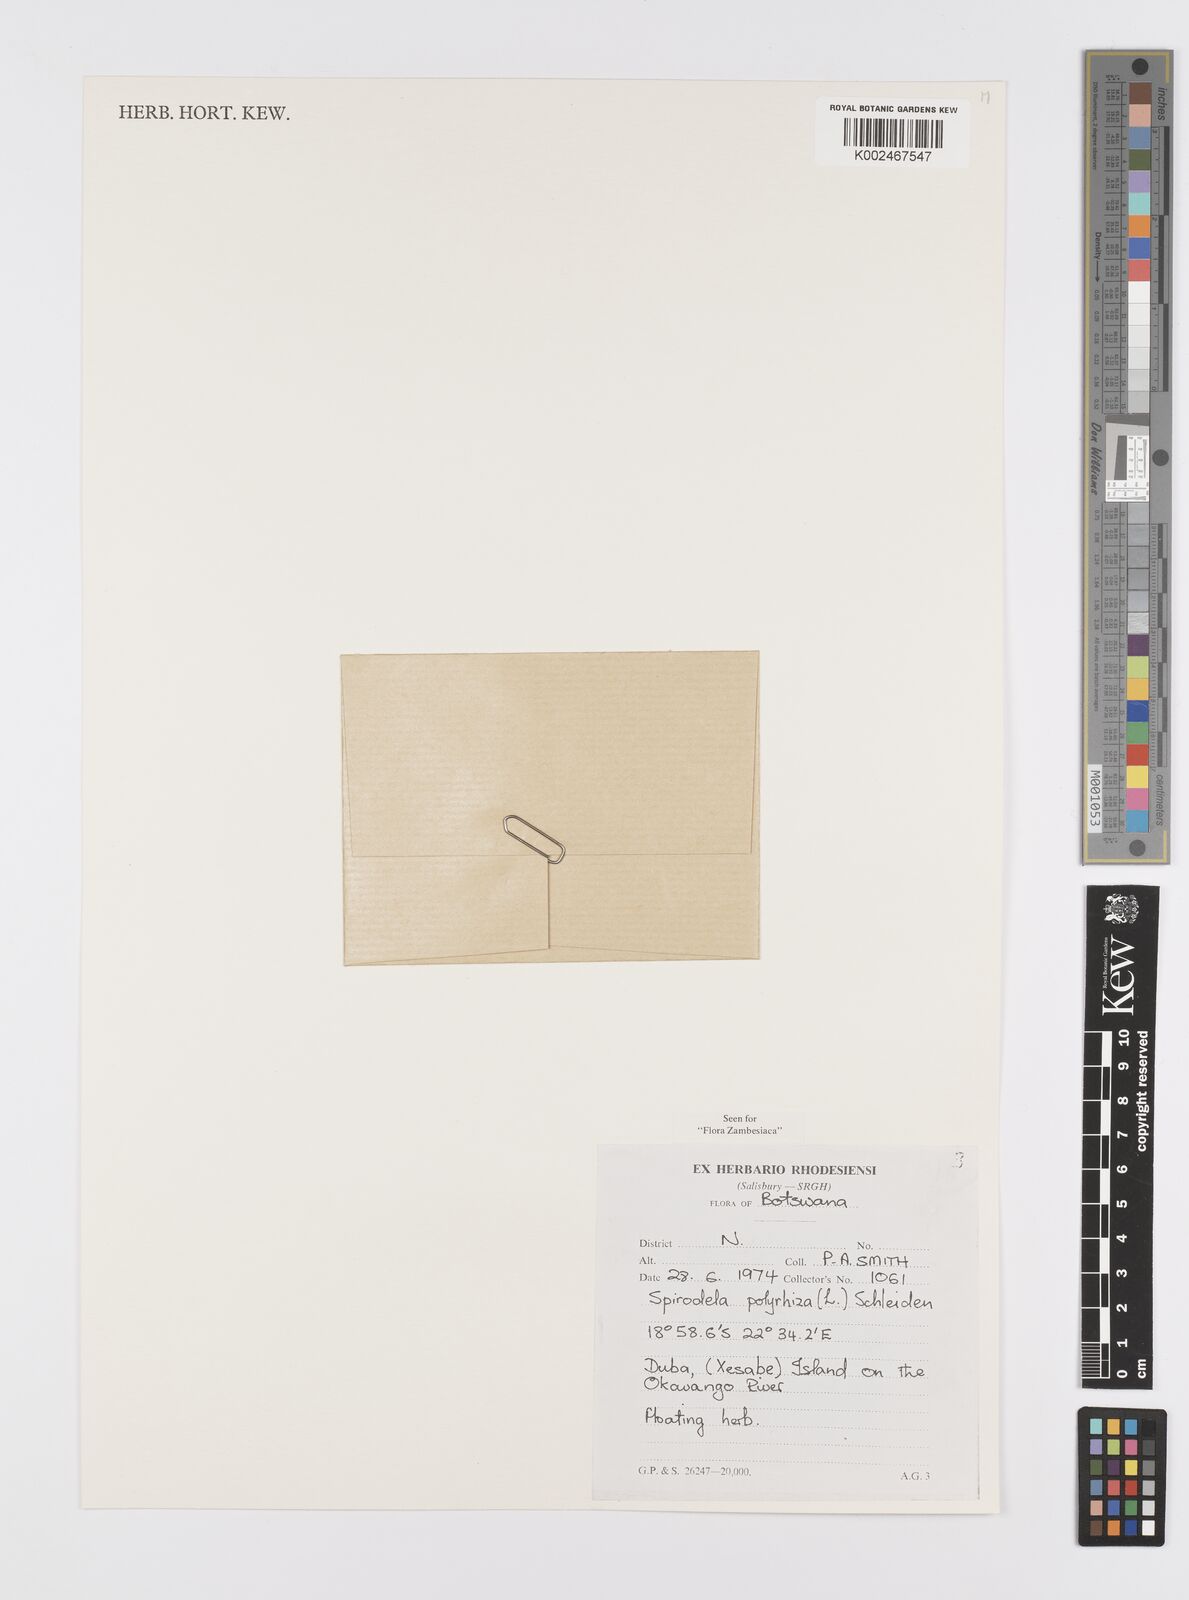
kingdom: Plantae
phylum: Tracheophyta
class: Liliopsida
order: Alismatales
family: Araceae
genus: Spirodela
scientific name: Spirodela polyrhiza
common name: Great duckweed
